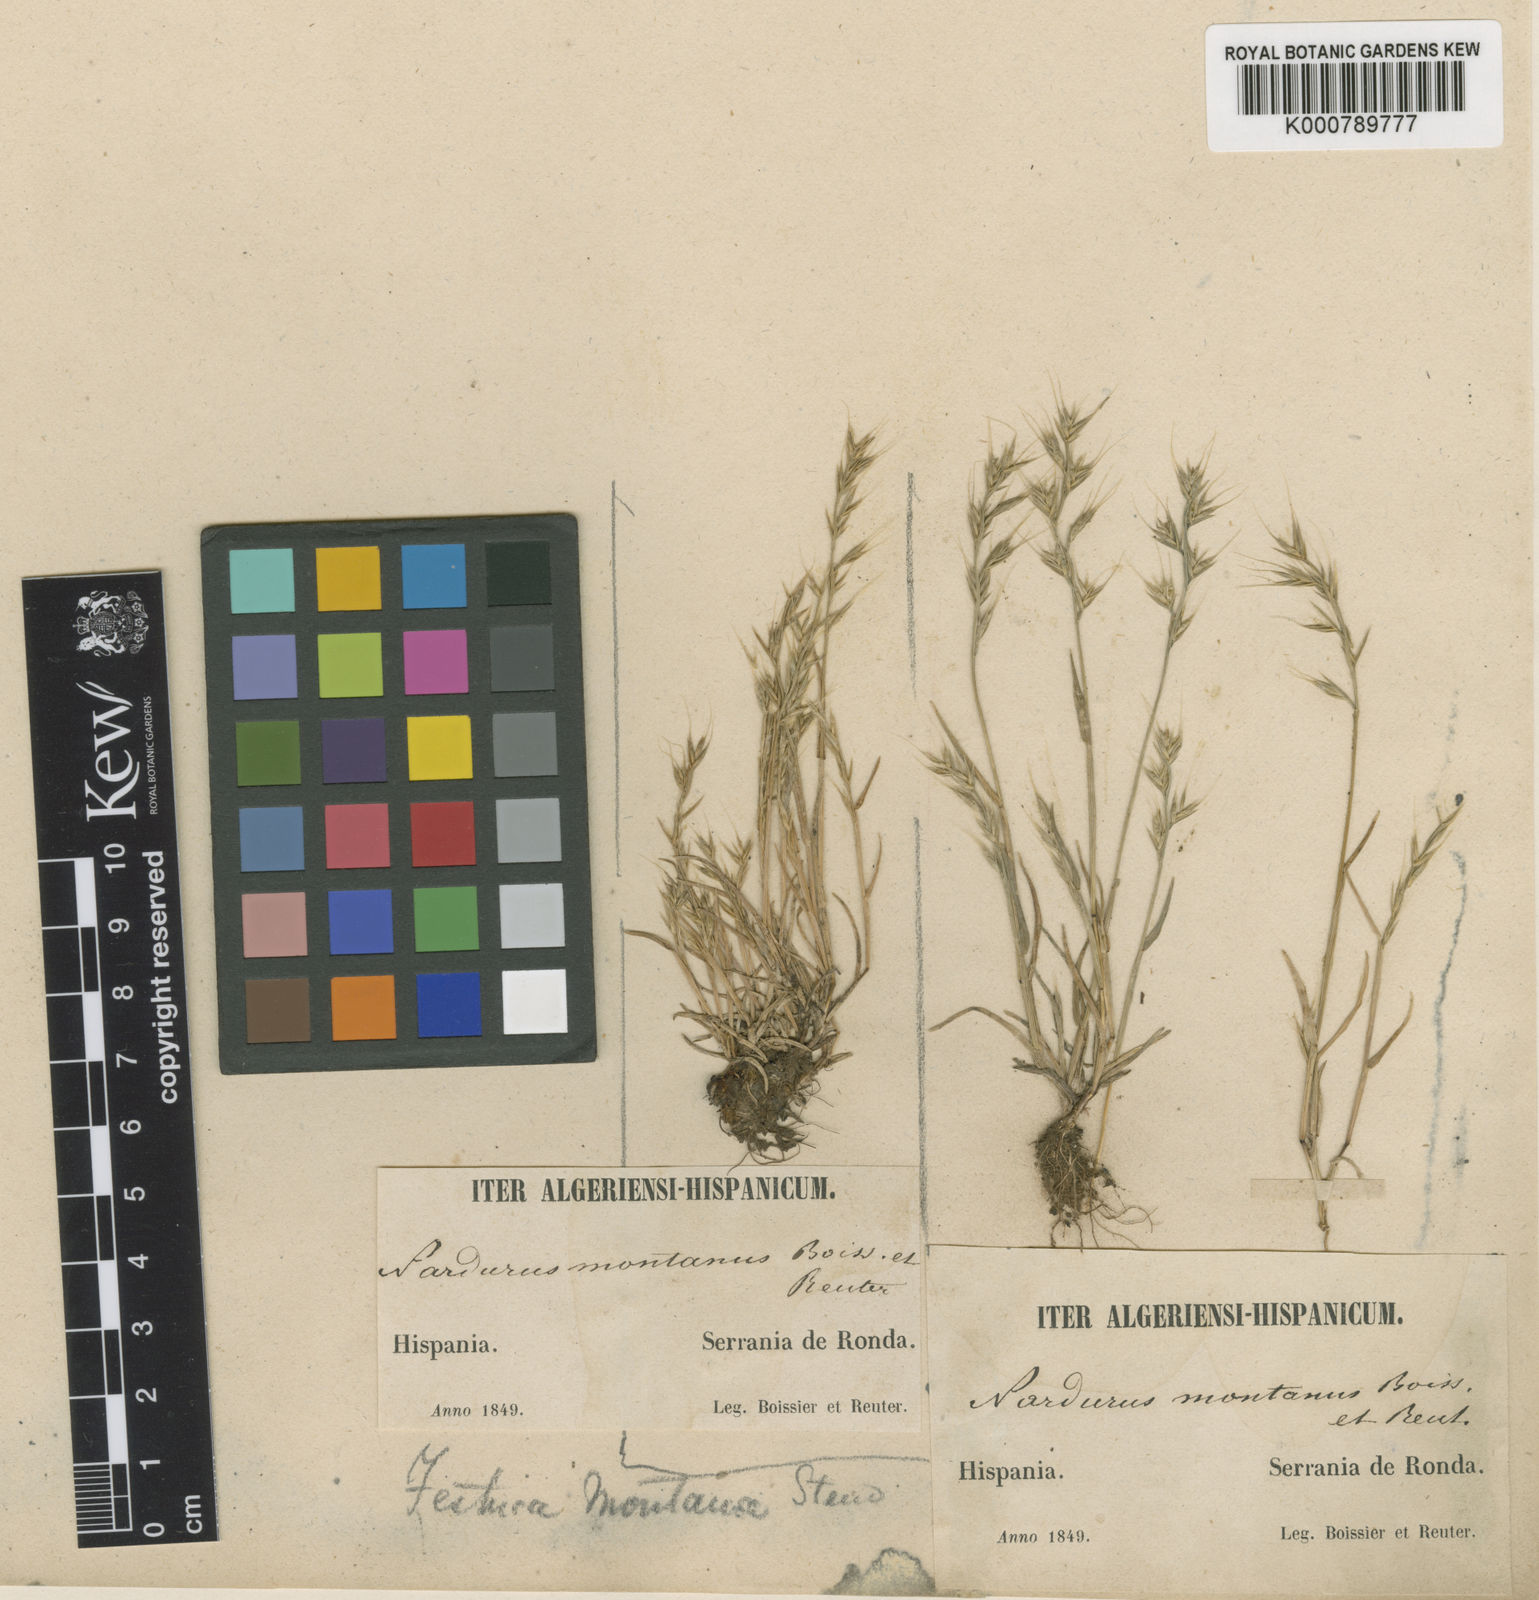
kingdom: Plantae
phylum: Tracheophyta
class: Liliopsida
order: Poales
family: Poaceae
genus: Festuca
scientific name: Festuca maritima
